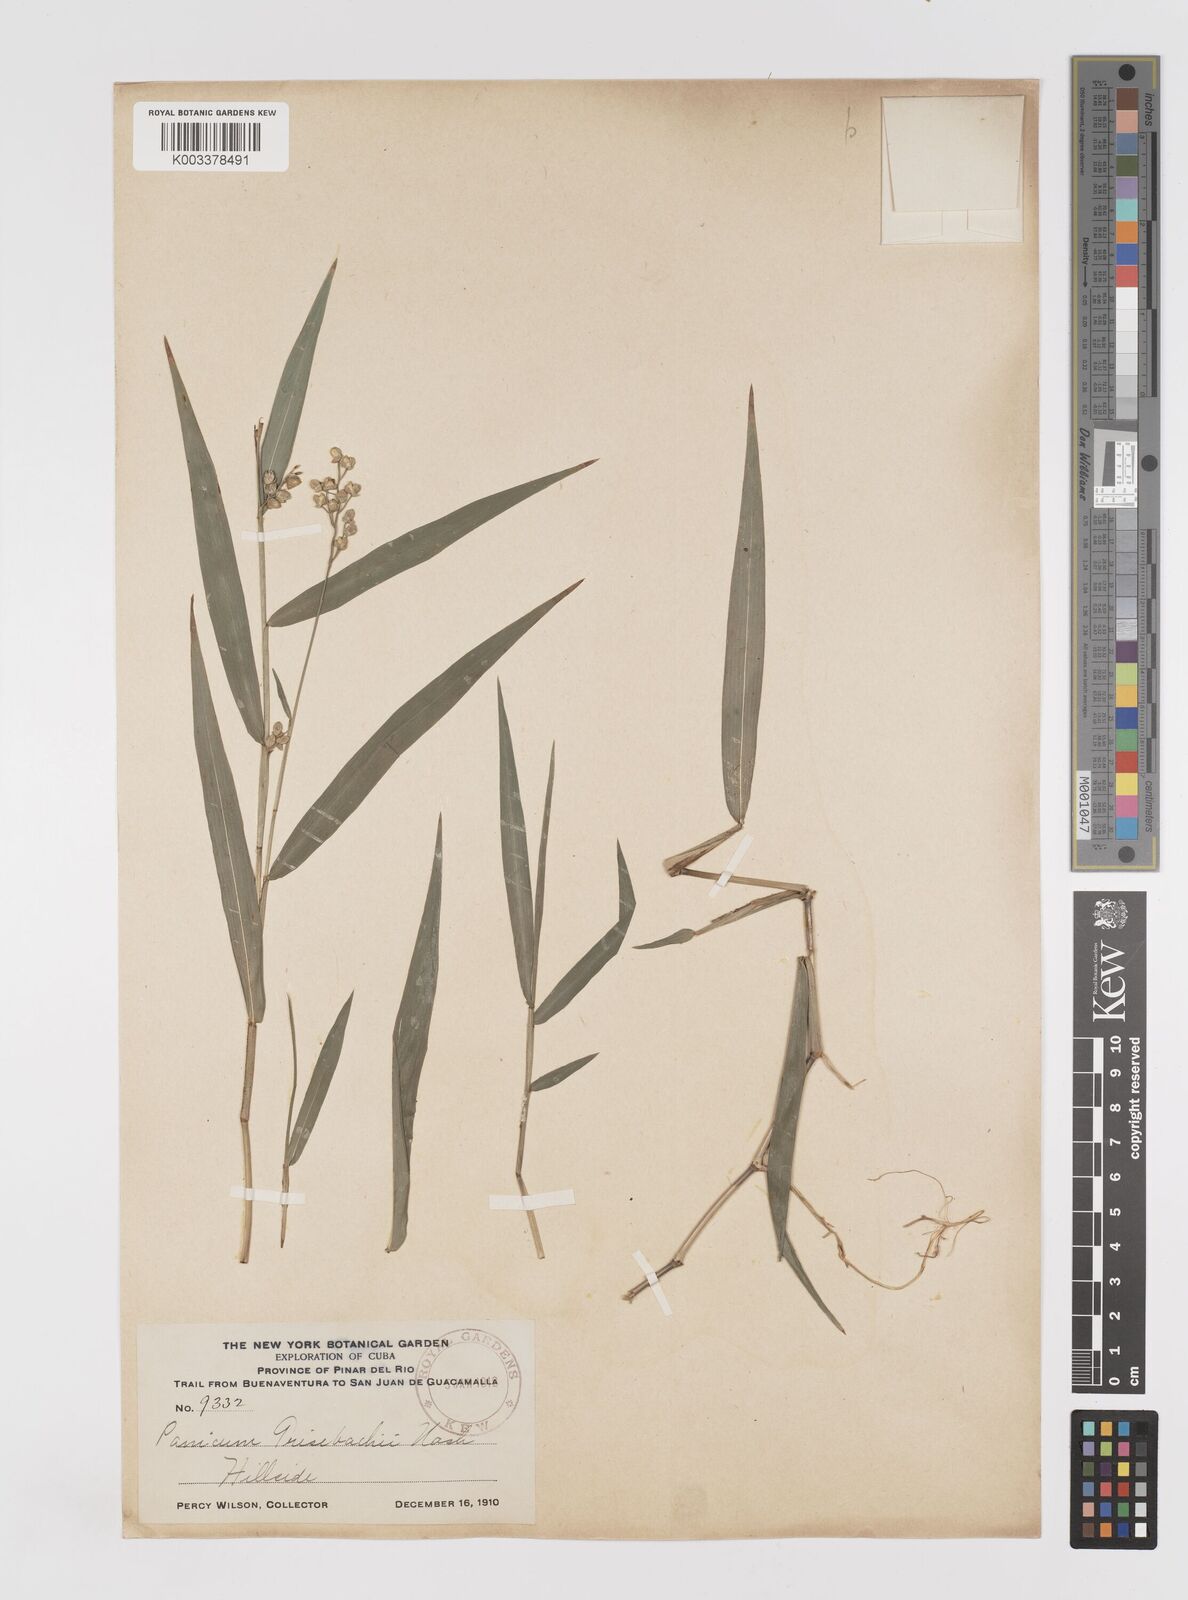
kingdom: Plantae
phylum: Tracheophyta
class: Liliopsida
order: Poales
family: Poaceae
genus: Lasiacis
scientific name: Lasiacis grisebachii
